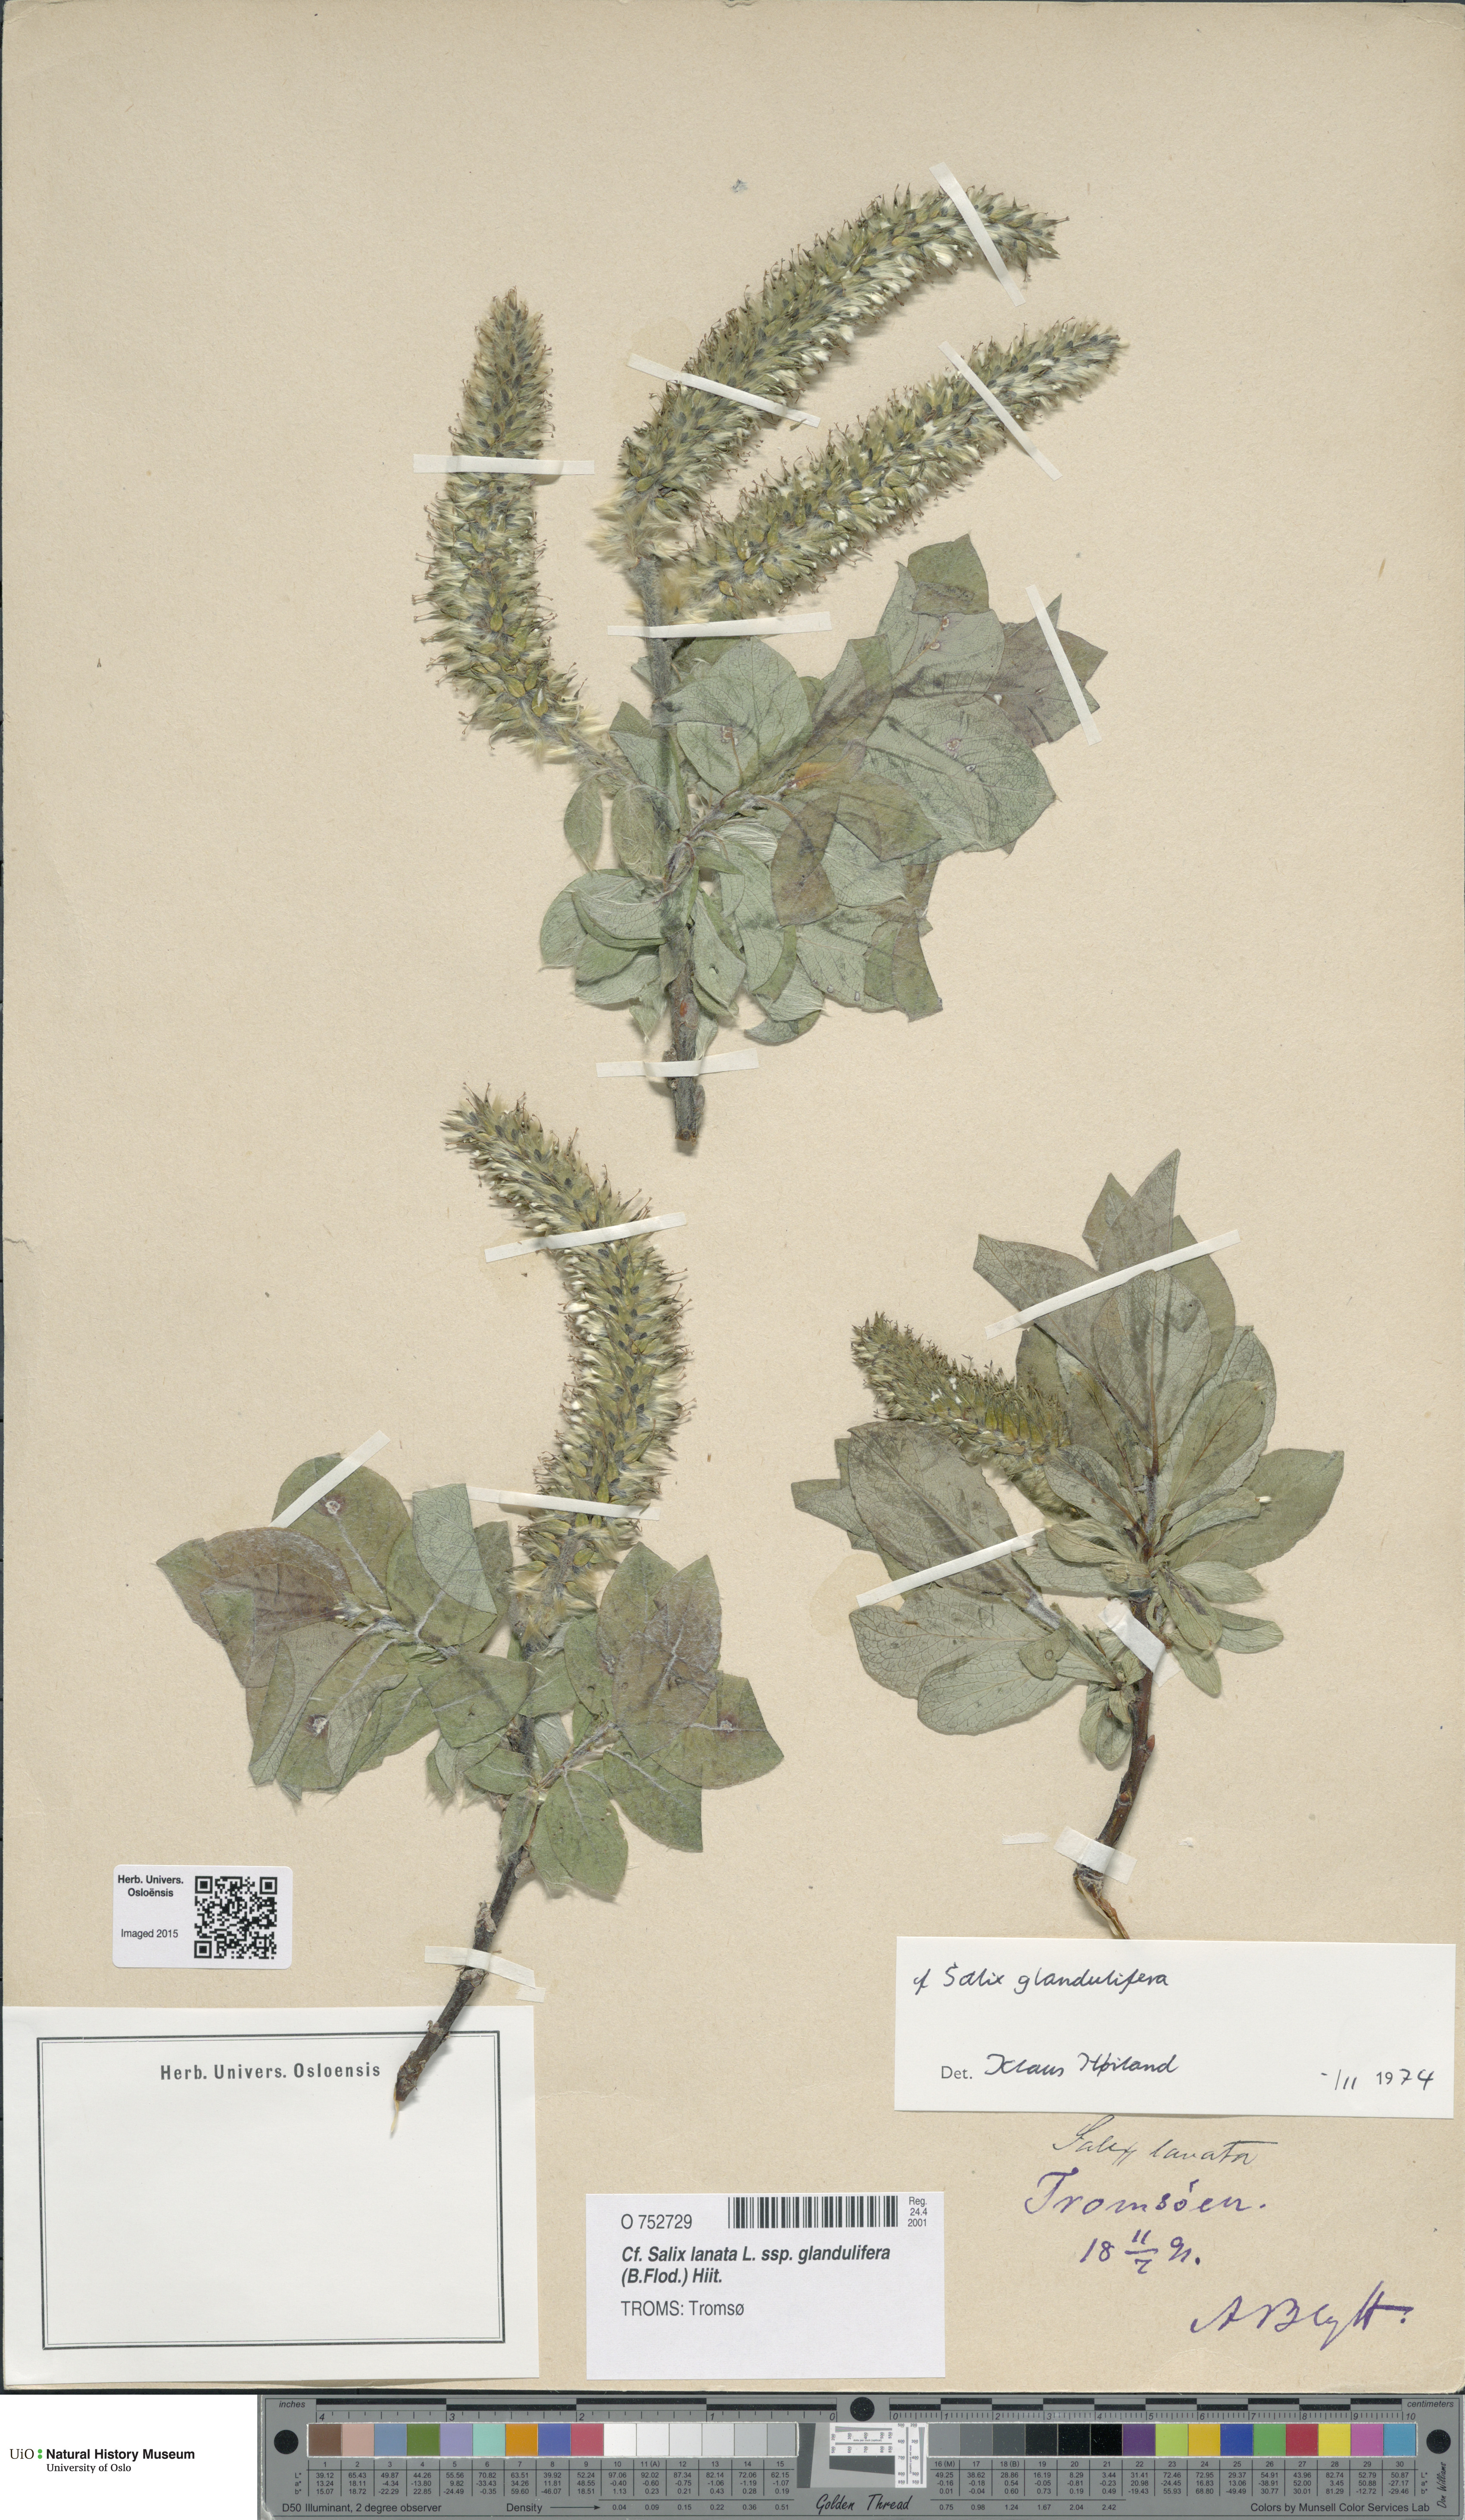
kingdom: Plantae
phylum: Tracheophyta
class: Magnoliopsida
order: Malpighiales
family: Salicaceae
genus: Salix
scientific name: Salix lanata
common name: Woolly willow
